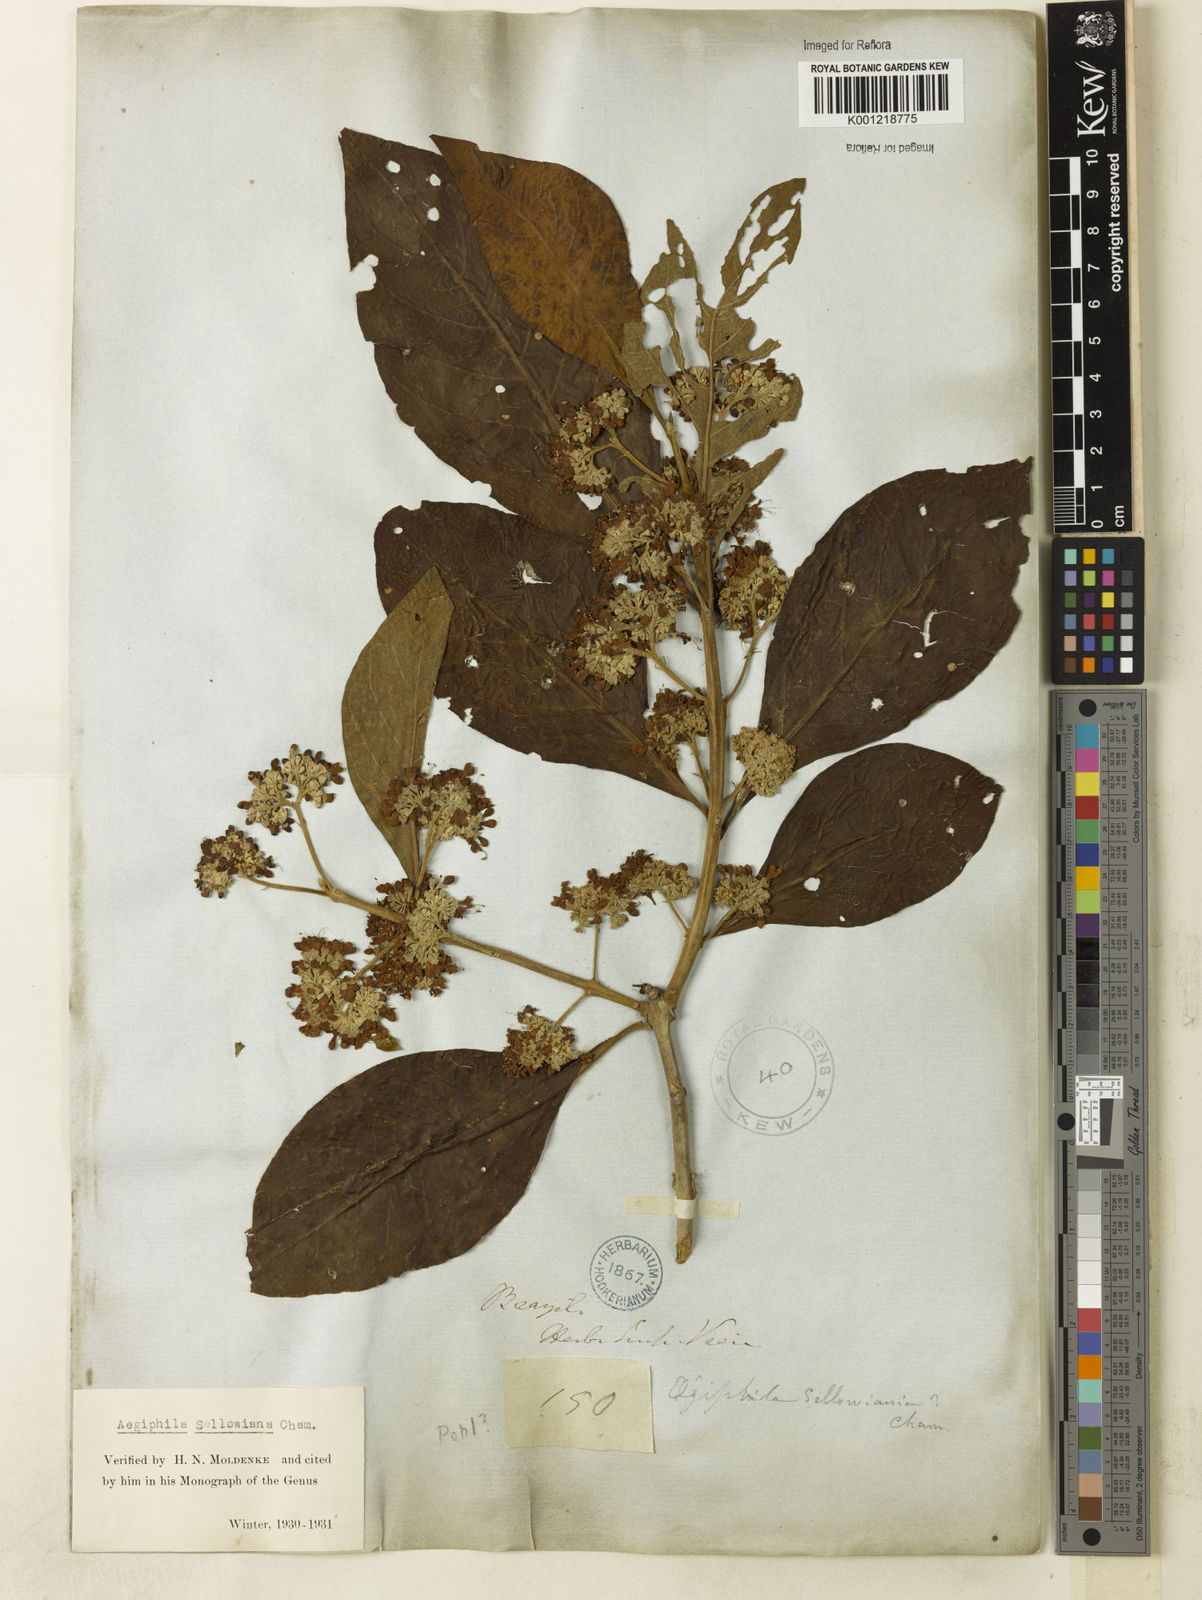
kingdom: Plantae
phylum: Tracheophyta
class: Magnoliopsida
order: Lamiales
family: Lamiaceae
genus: Aegiphila
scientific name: Aegiphila verticillata
